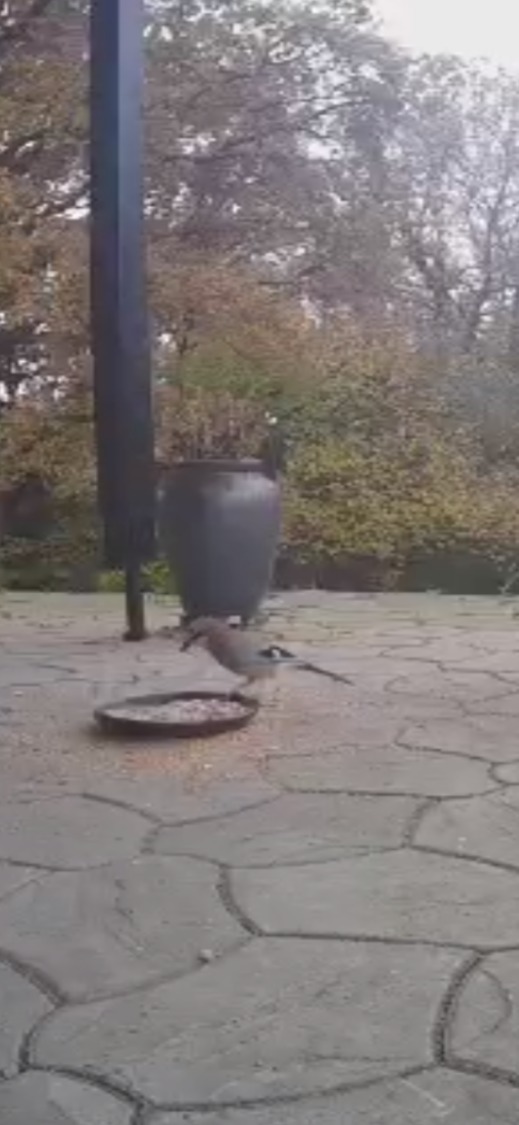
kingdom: Animalia
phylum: Chordata
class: Aves
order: Passeriformes
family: Corvidae
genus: Garrulus
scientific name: Garrulus glandarius
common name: Skovskade
